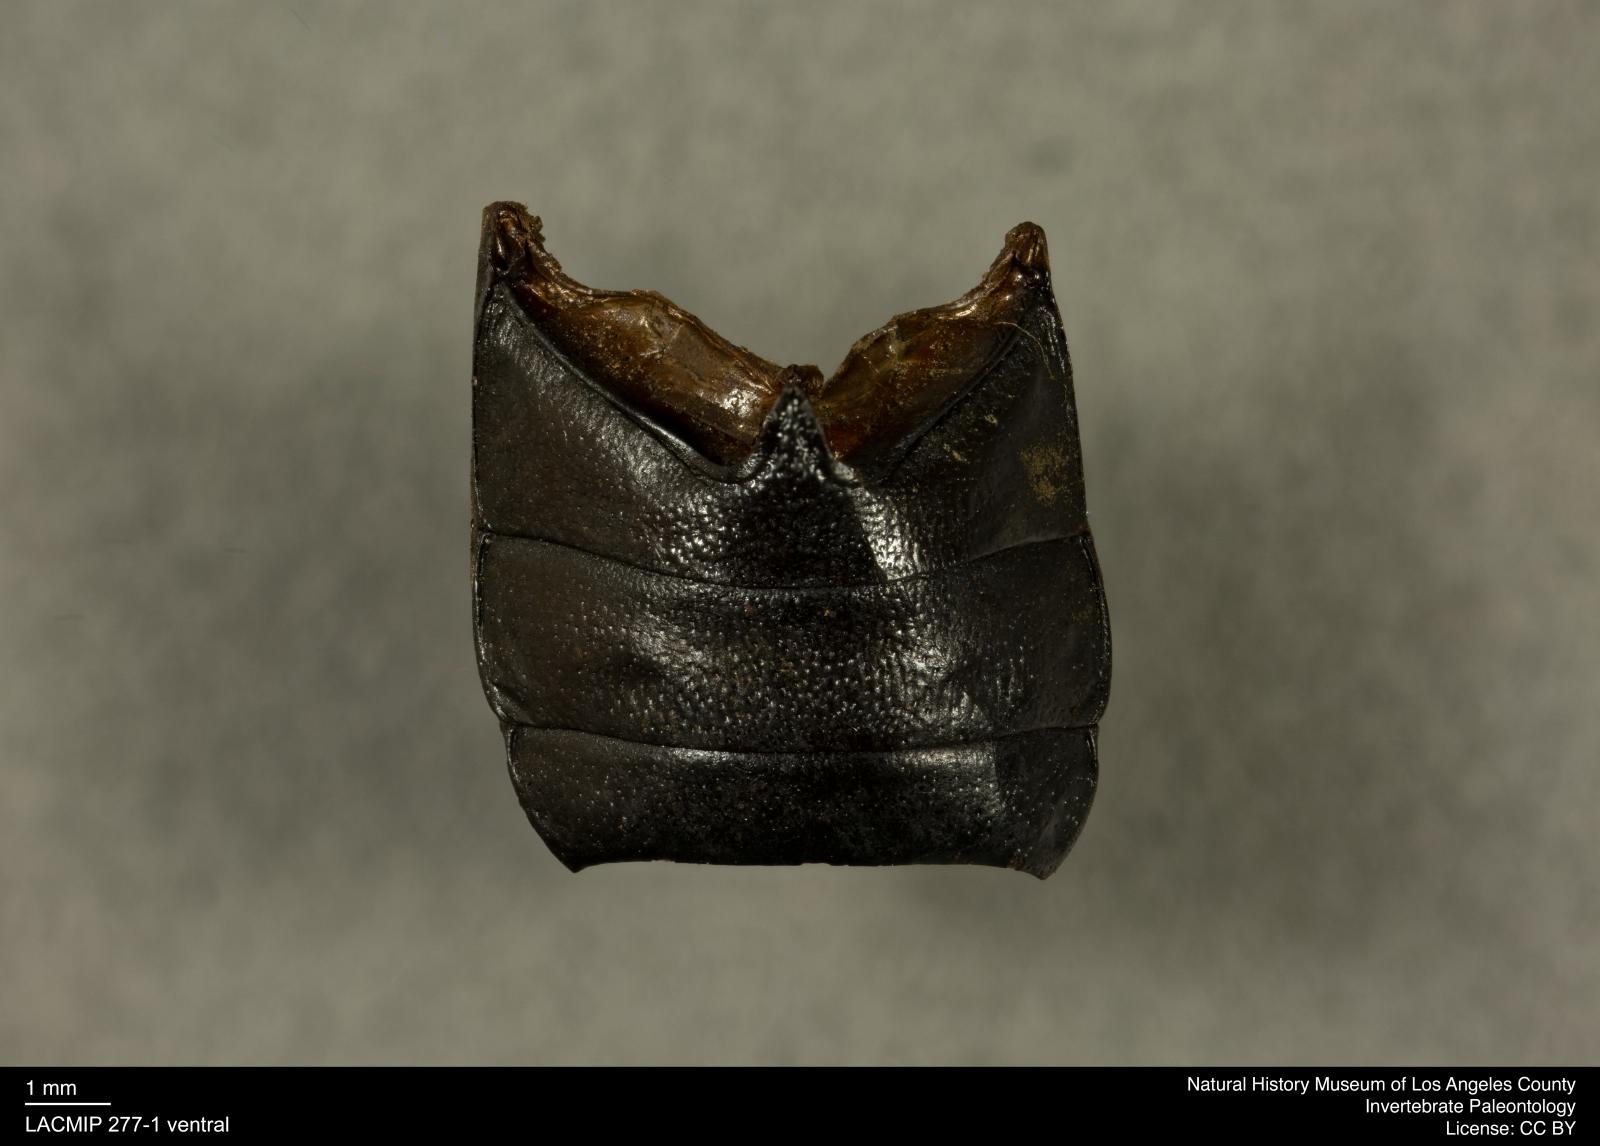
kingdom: Animalia
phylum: Arthropoda
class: Insecta
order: Coleoptera
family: Tenebrionidae
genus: Coniontis
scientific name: Coniontis abdominalis
